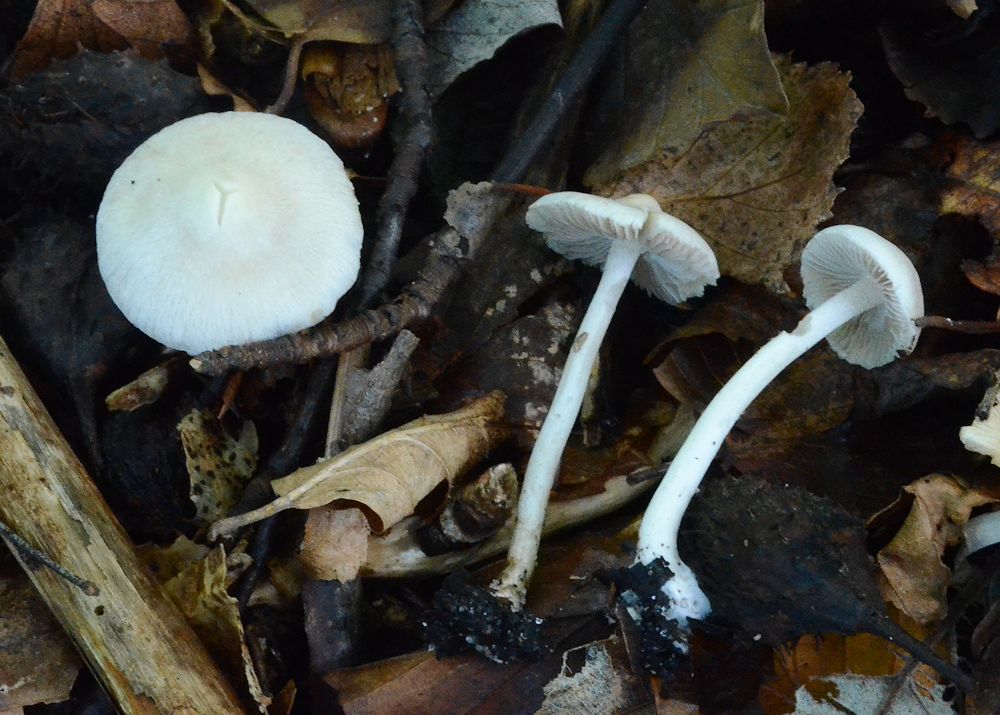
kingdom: Fungi
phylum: Basidiomycota
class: Agaricomycetes
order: Agaricales
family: Inocybaceae
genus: Inocybe
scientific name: Inocybe
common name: almindelig trævlhat
